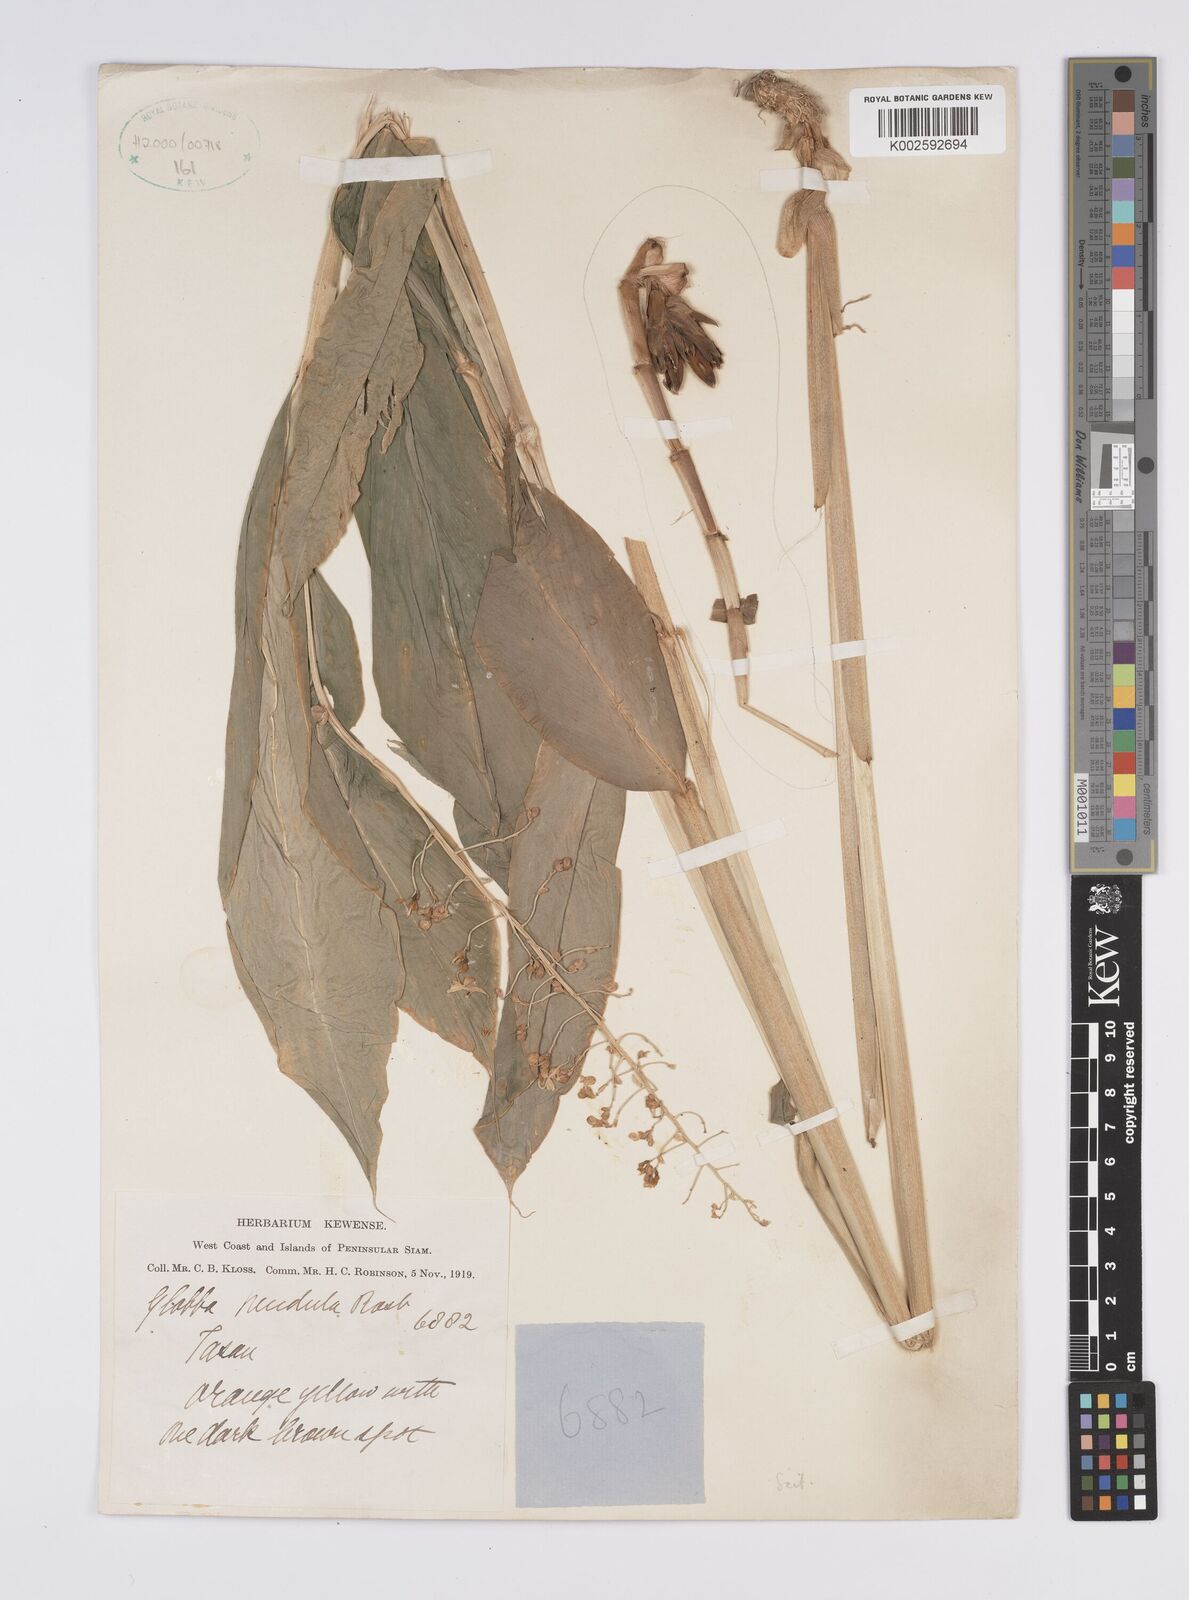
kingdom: Plantae
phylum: Tracheophyta
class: Liliopsida
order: Zingiberales
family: Zingiberaceae
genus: Globba
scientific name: Globba pendula
